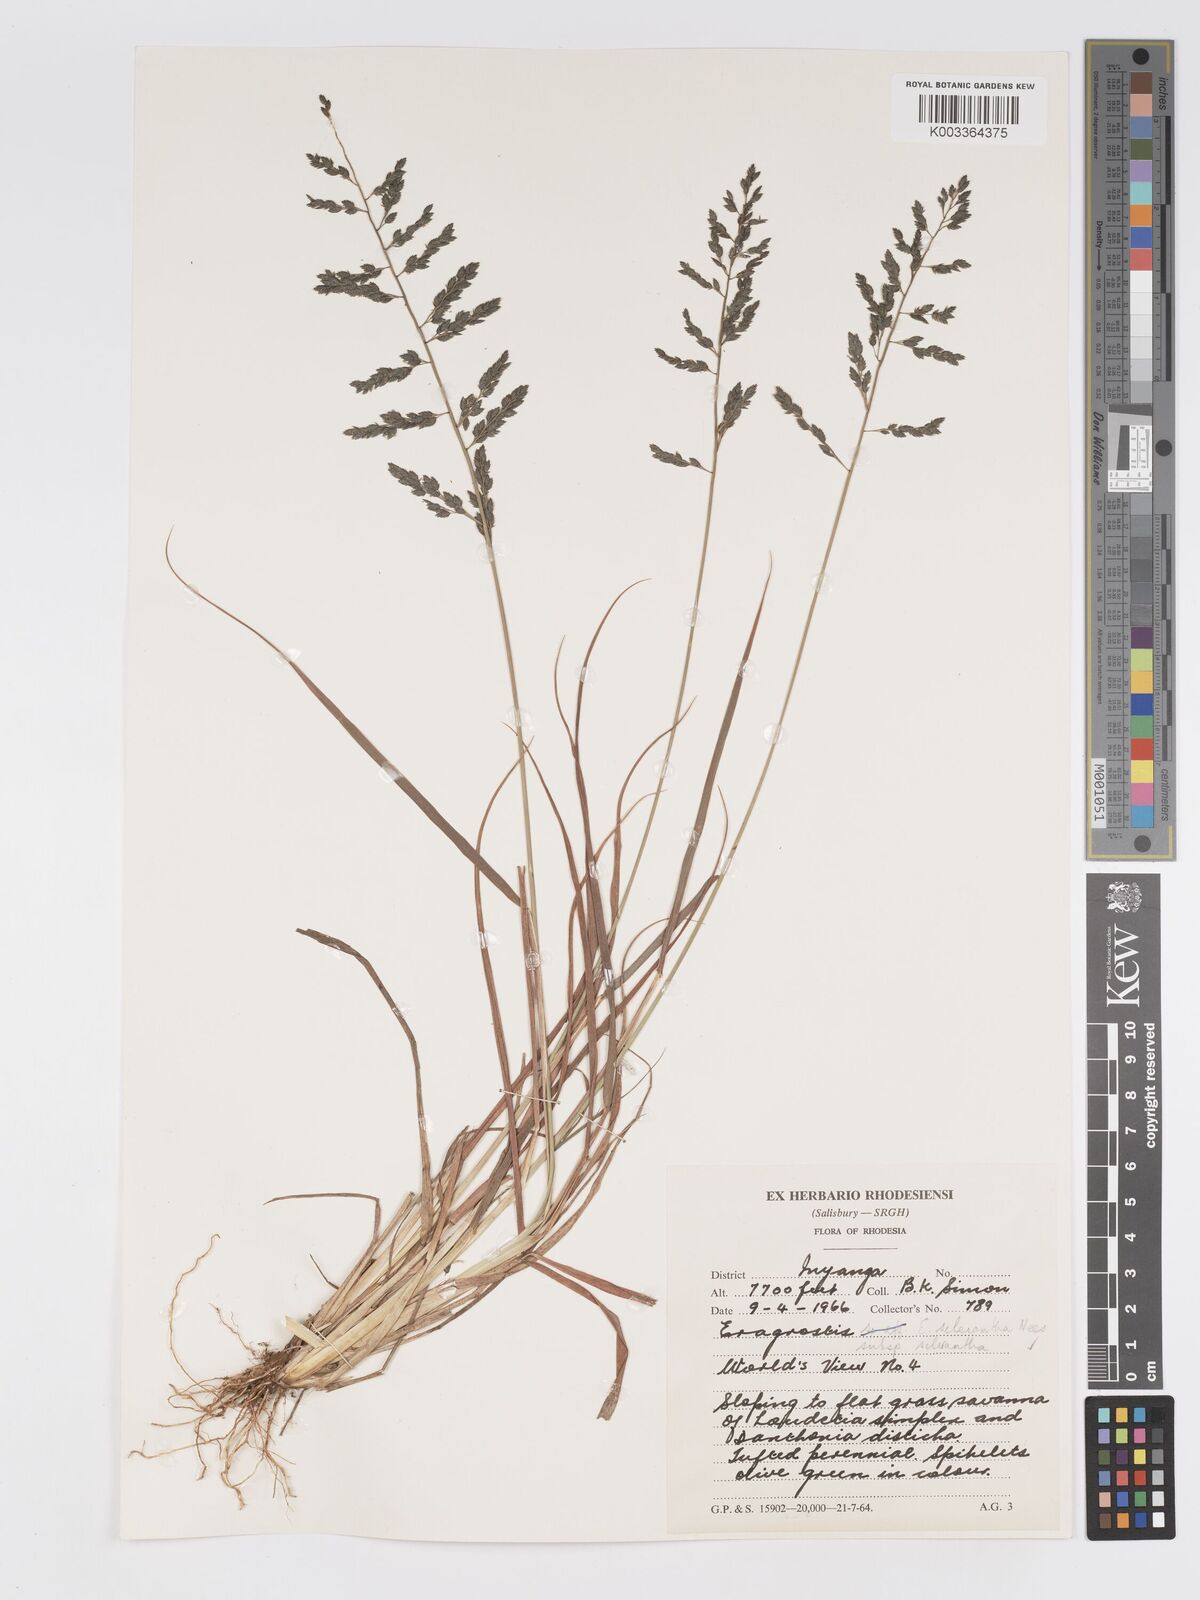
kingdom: Plantae
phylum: Tracheophyta
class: Liliopsida
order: Poales
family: Poaceae
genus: Eragrostis
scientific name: Eragrostis racemosa
